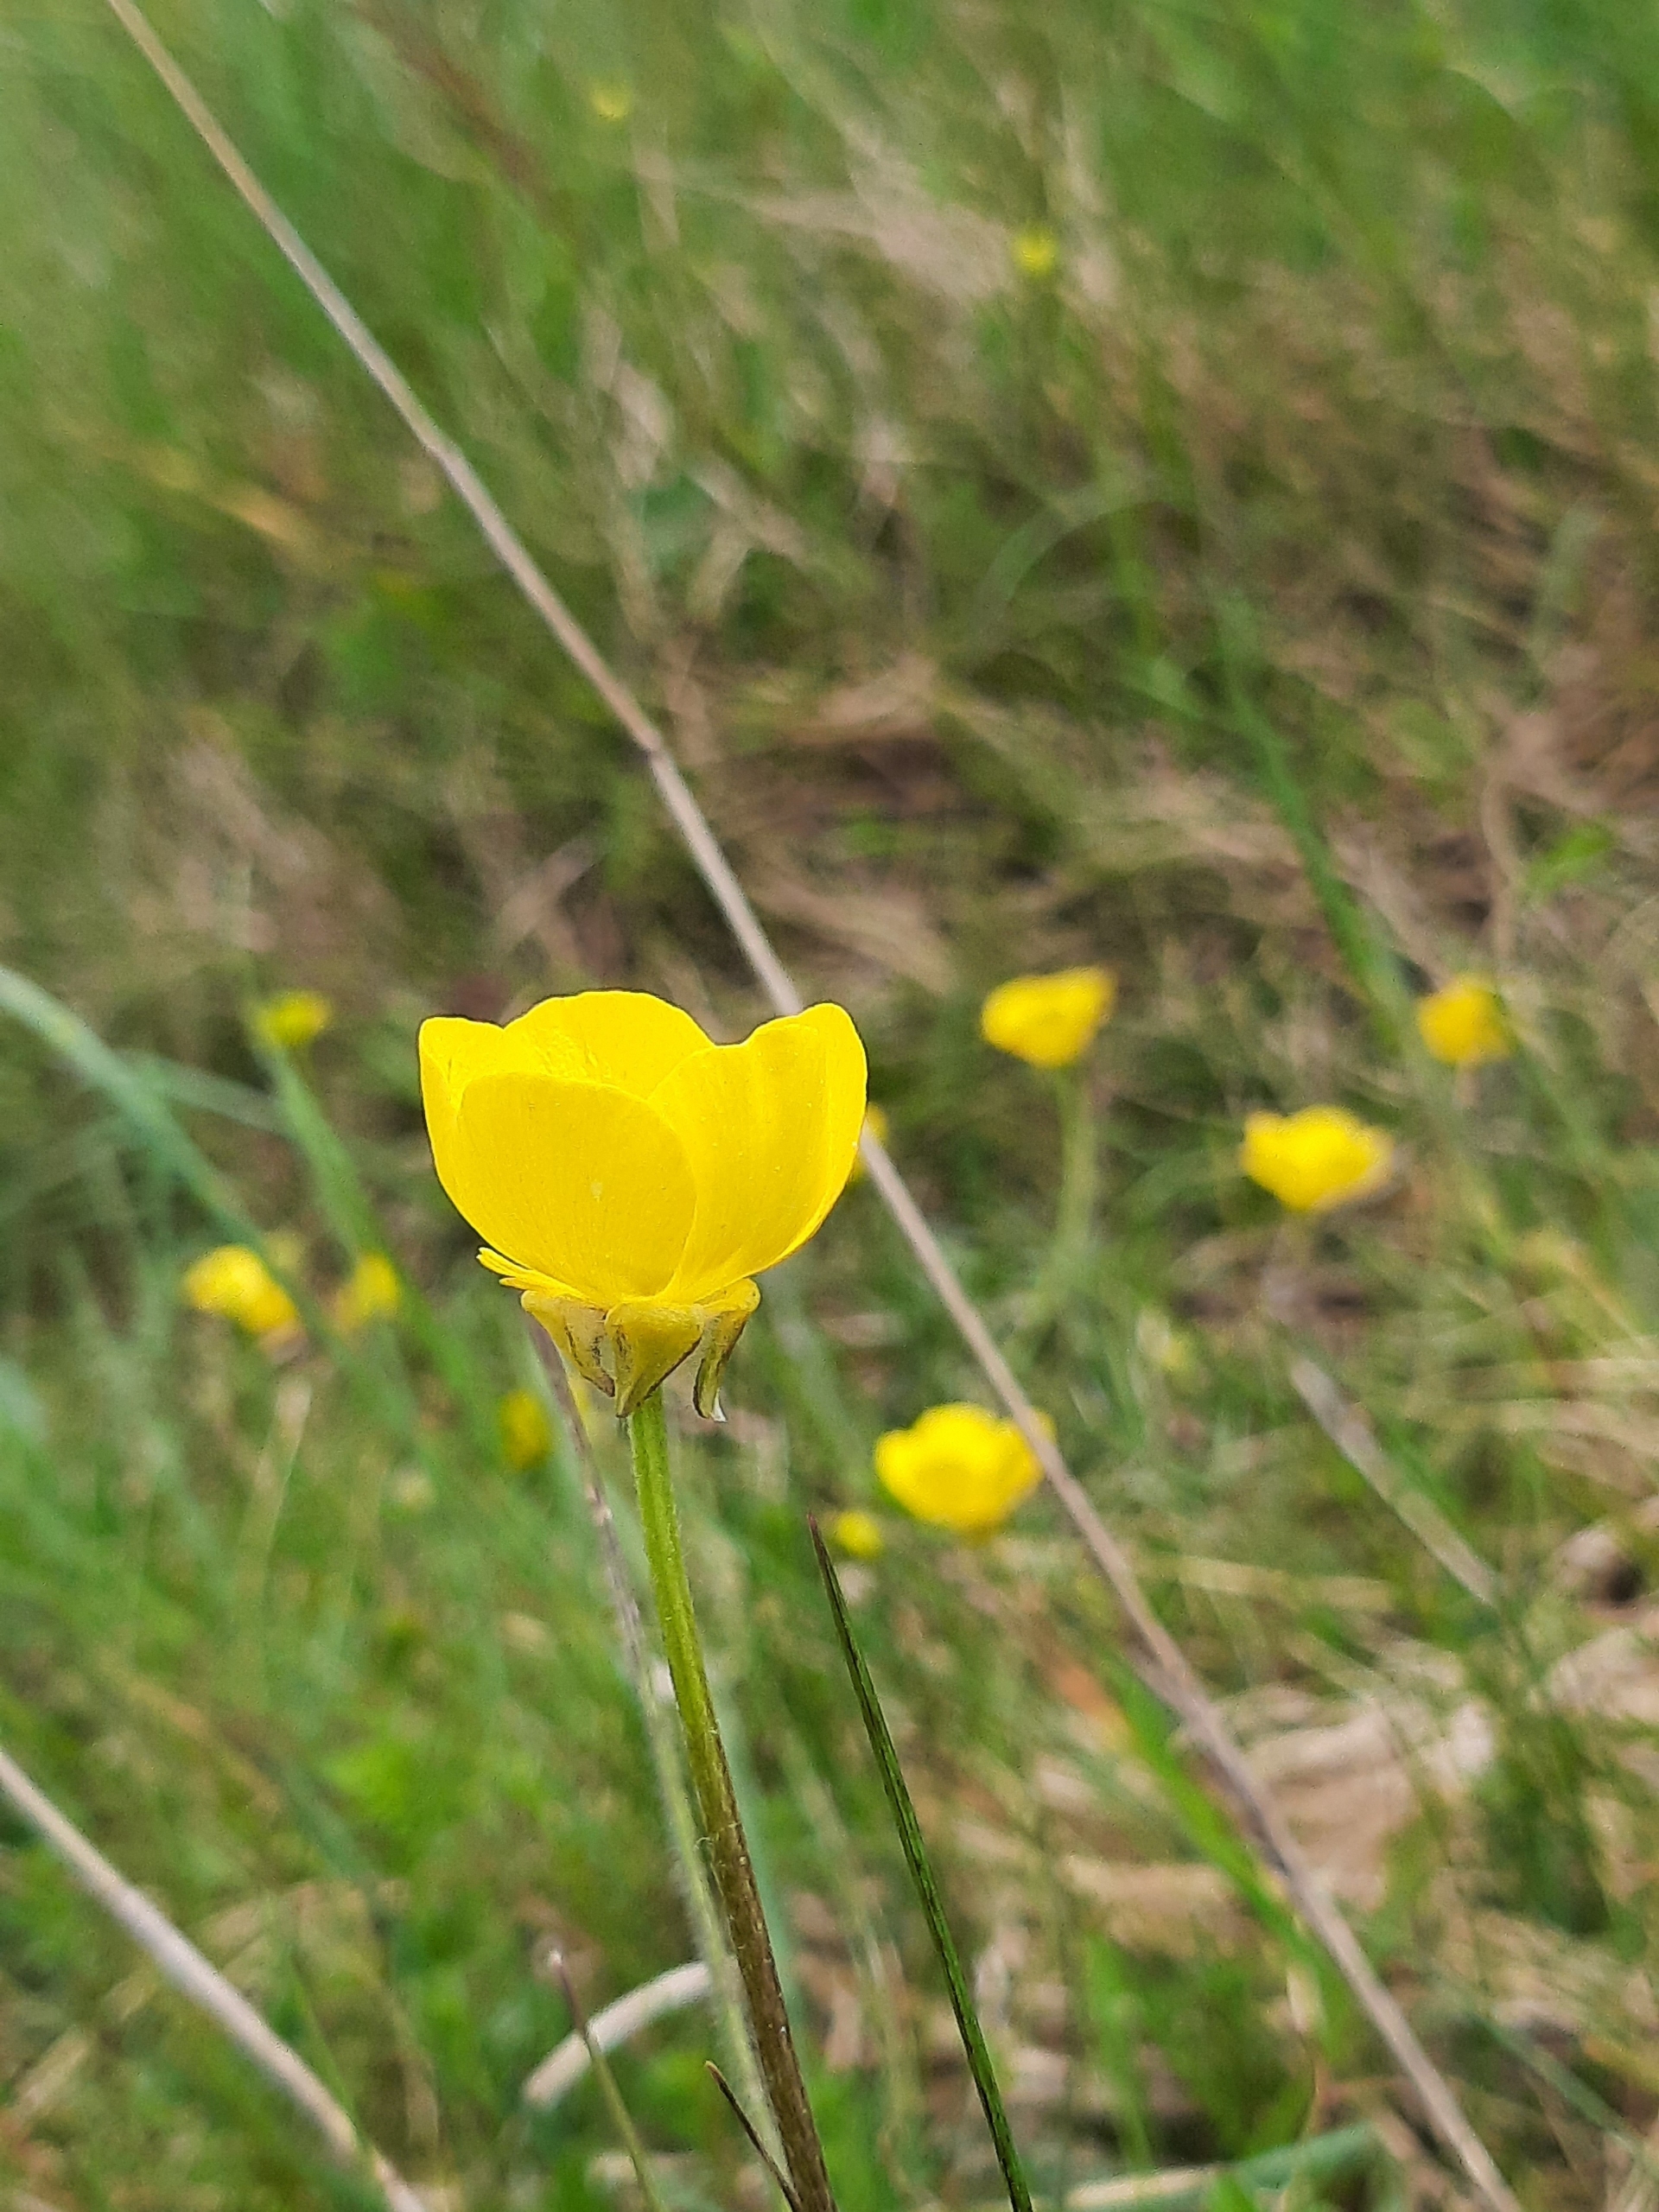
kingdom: Plantae
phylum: Tracheophyta
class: Magnoliopsida
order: Ranunculales
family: Ranunculaceae
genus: Ranunculus
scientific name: Ranunculus bulbosus
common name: Knold-ranunkel
